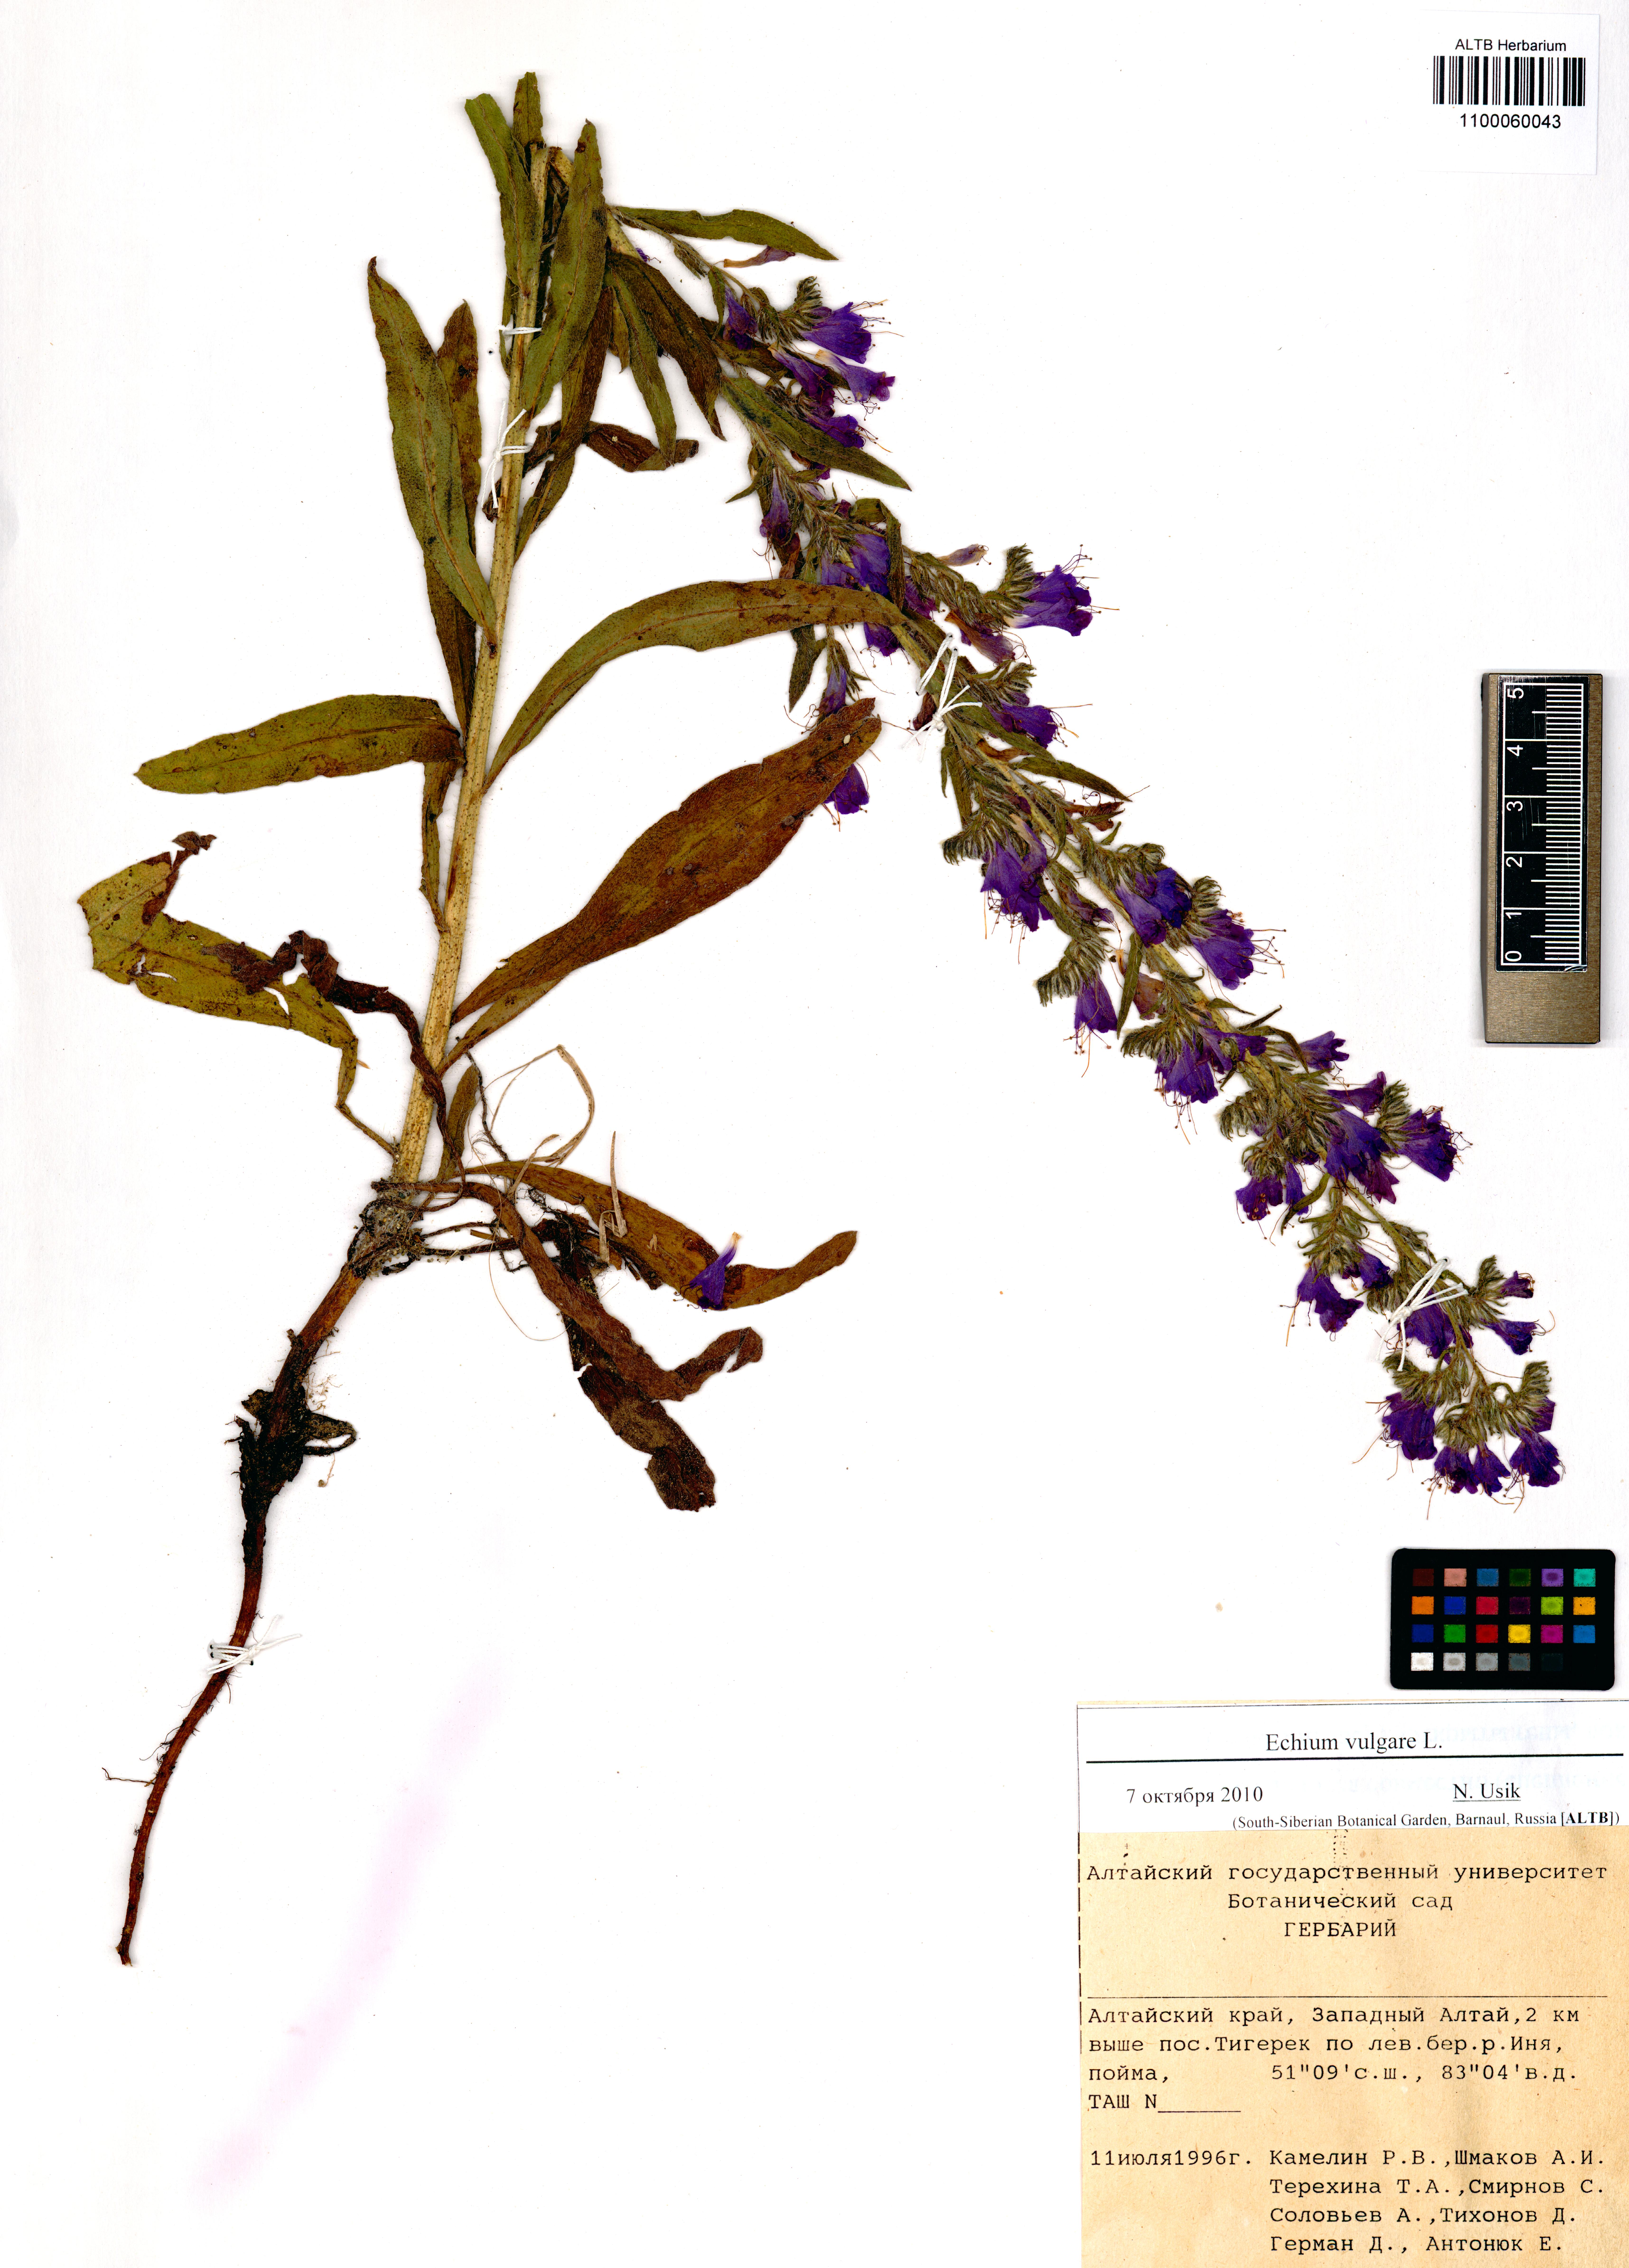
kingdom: Plantae
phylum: Tracheophyta
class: Magnoliopsida
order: Boraginales
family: Boraginaceae
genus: Echium
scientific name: Echium vulgare
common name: Common viper's bugloss
